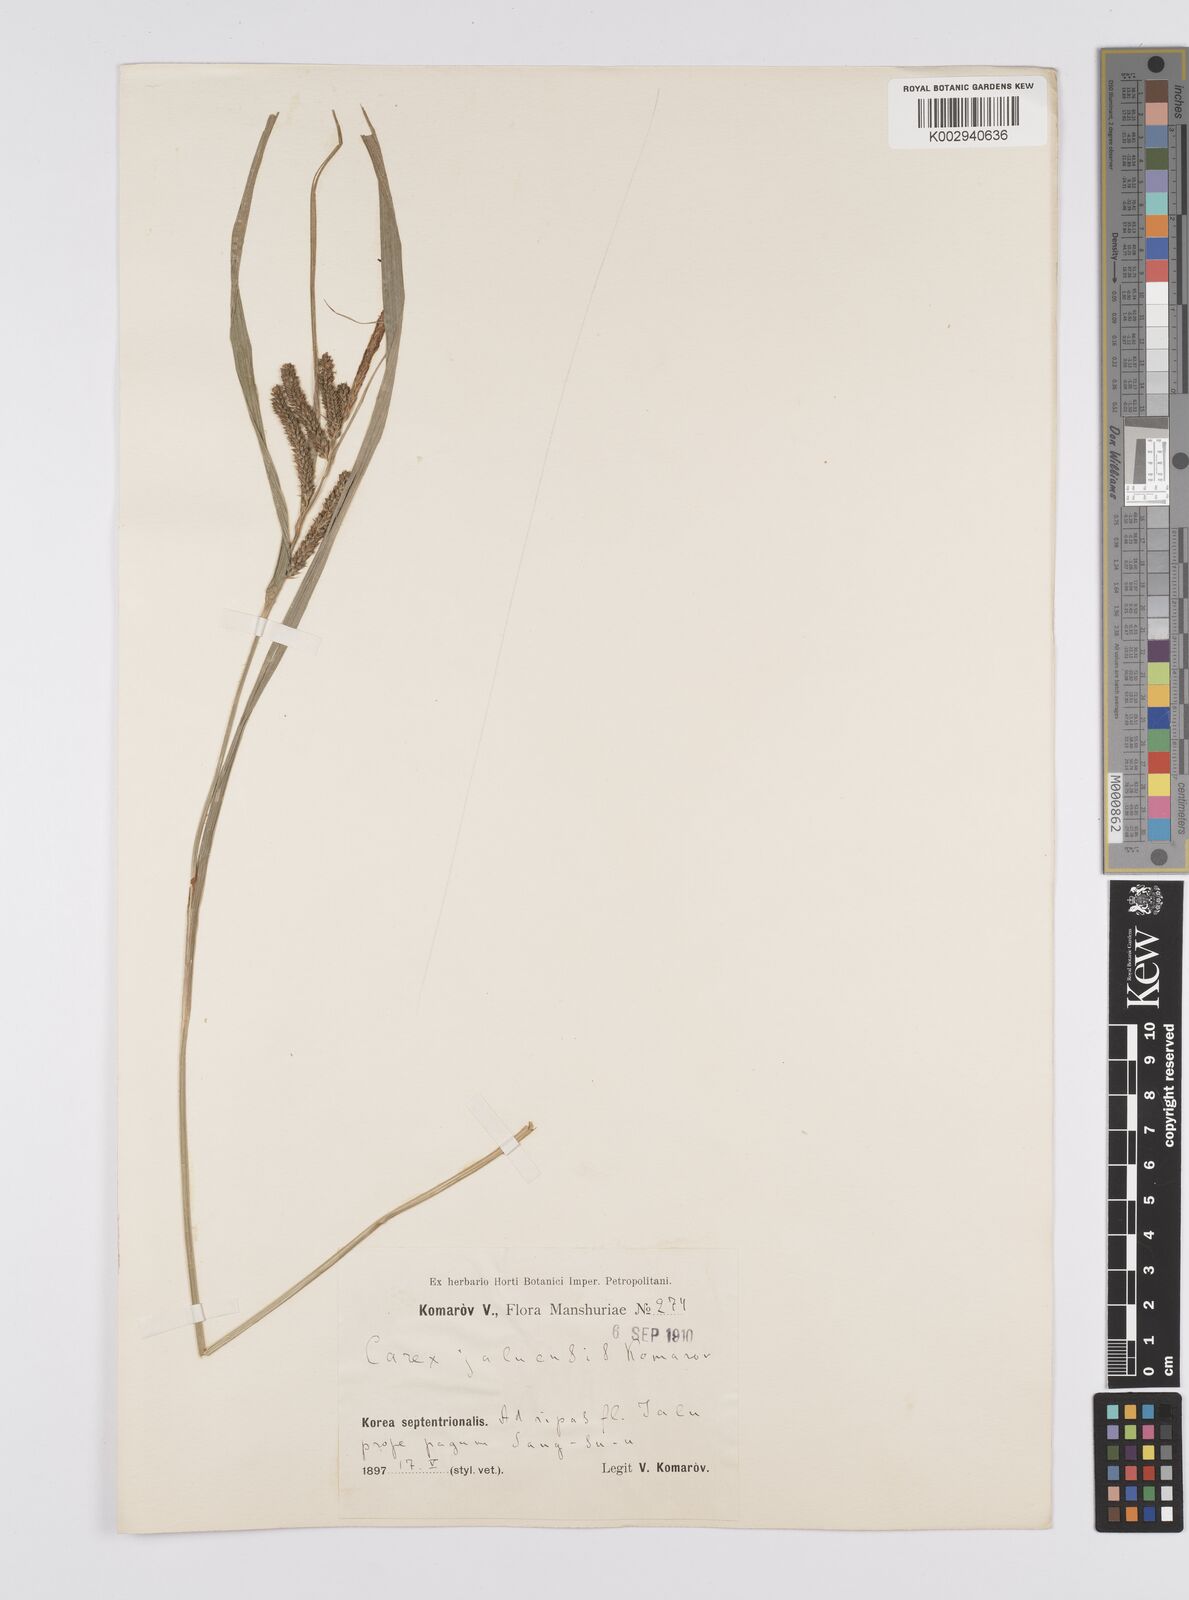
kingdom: Plantae
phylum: Tracheophyta
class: Liliopsida
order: Poales
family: Cyperaceae
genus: Carex
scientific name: Carex jaluensis
